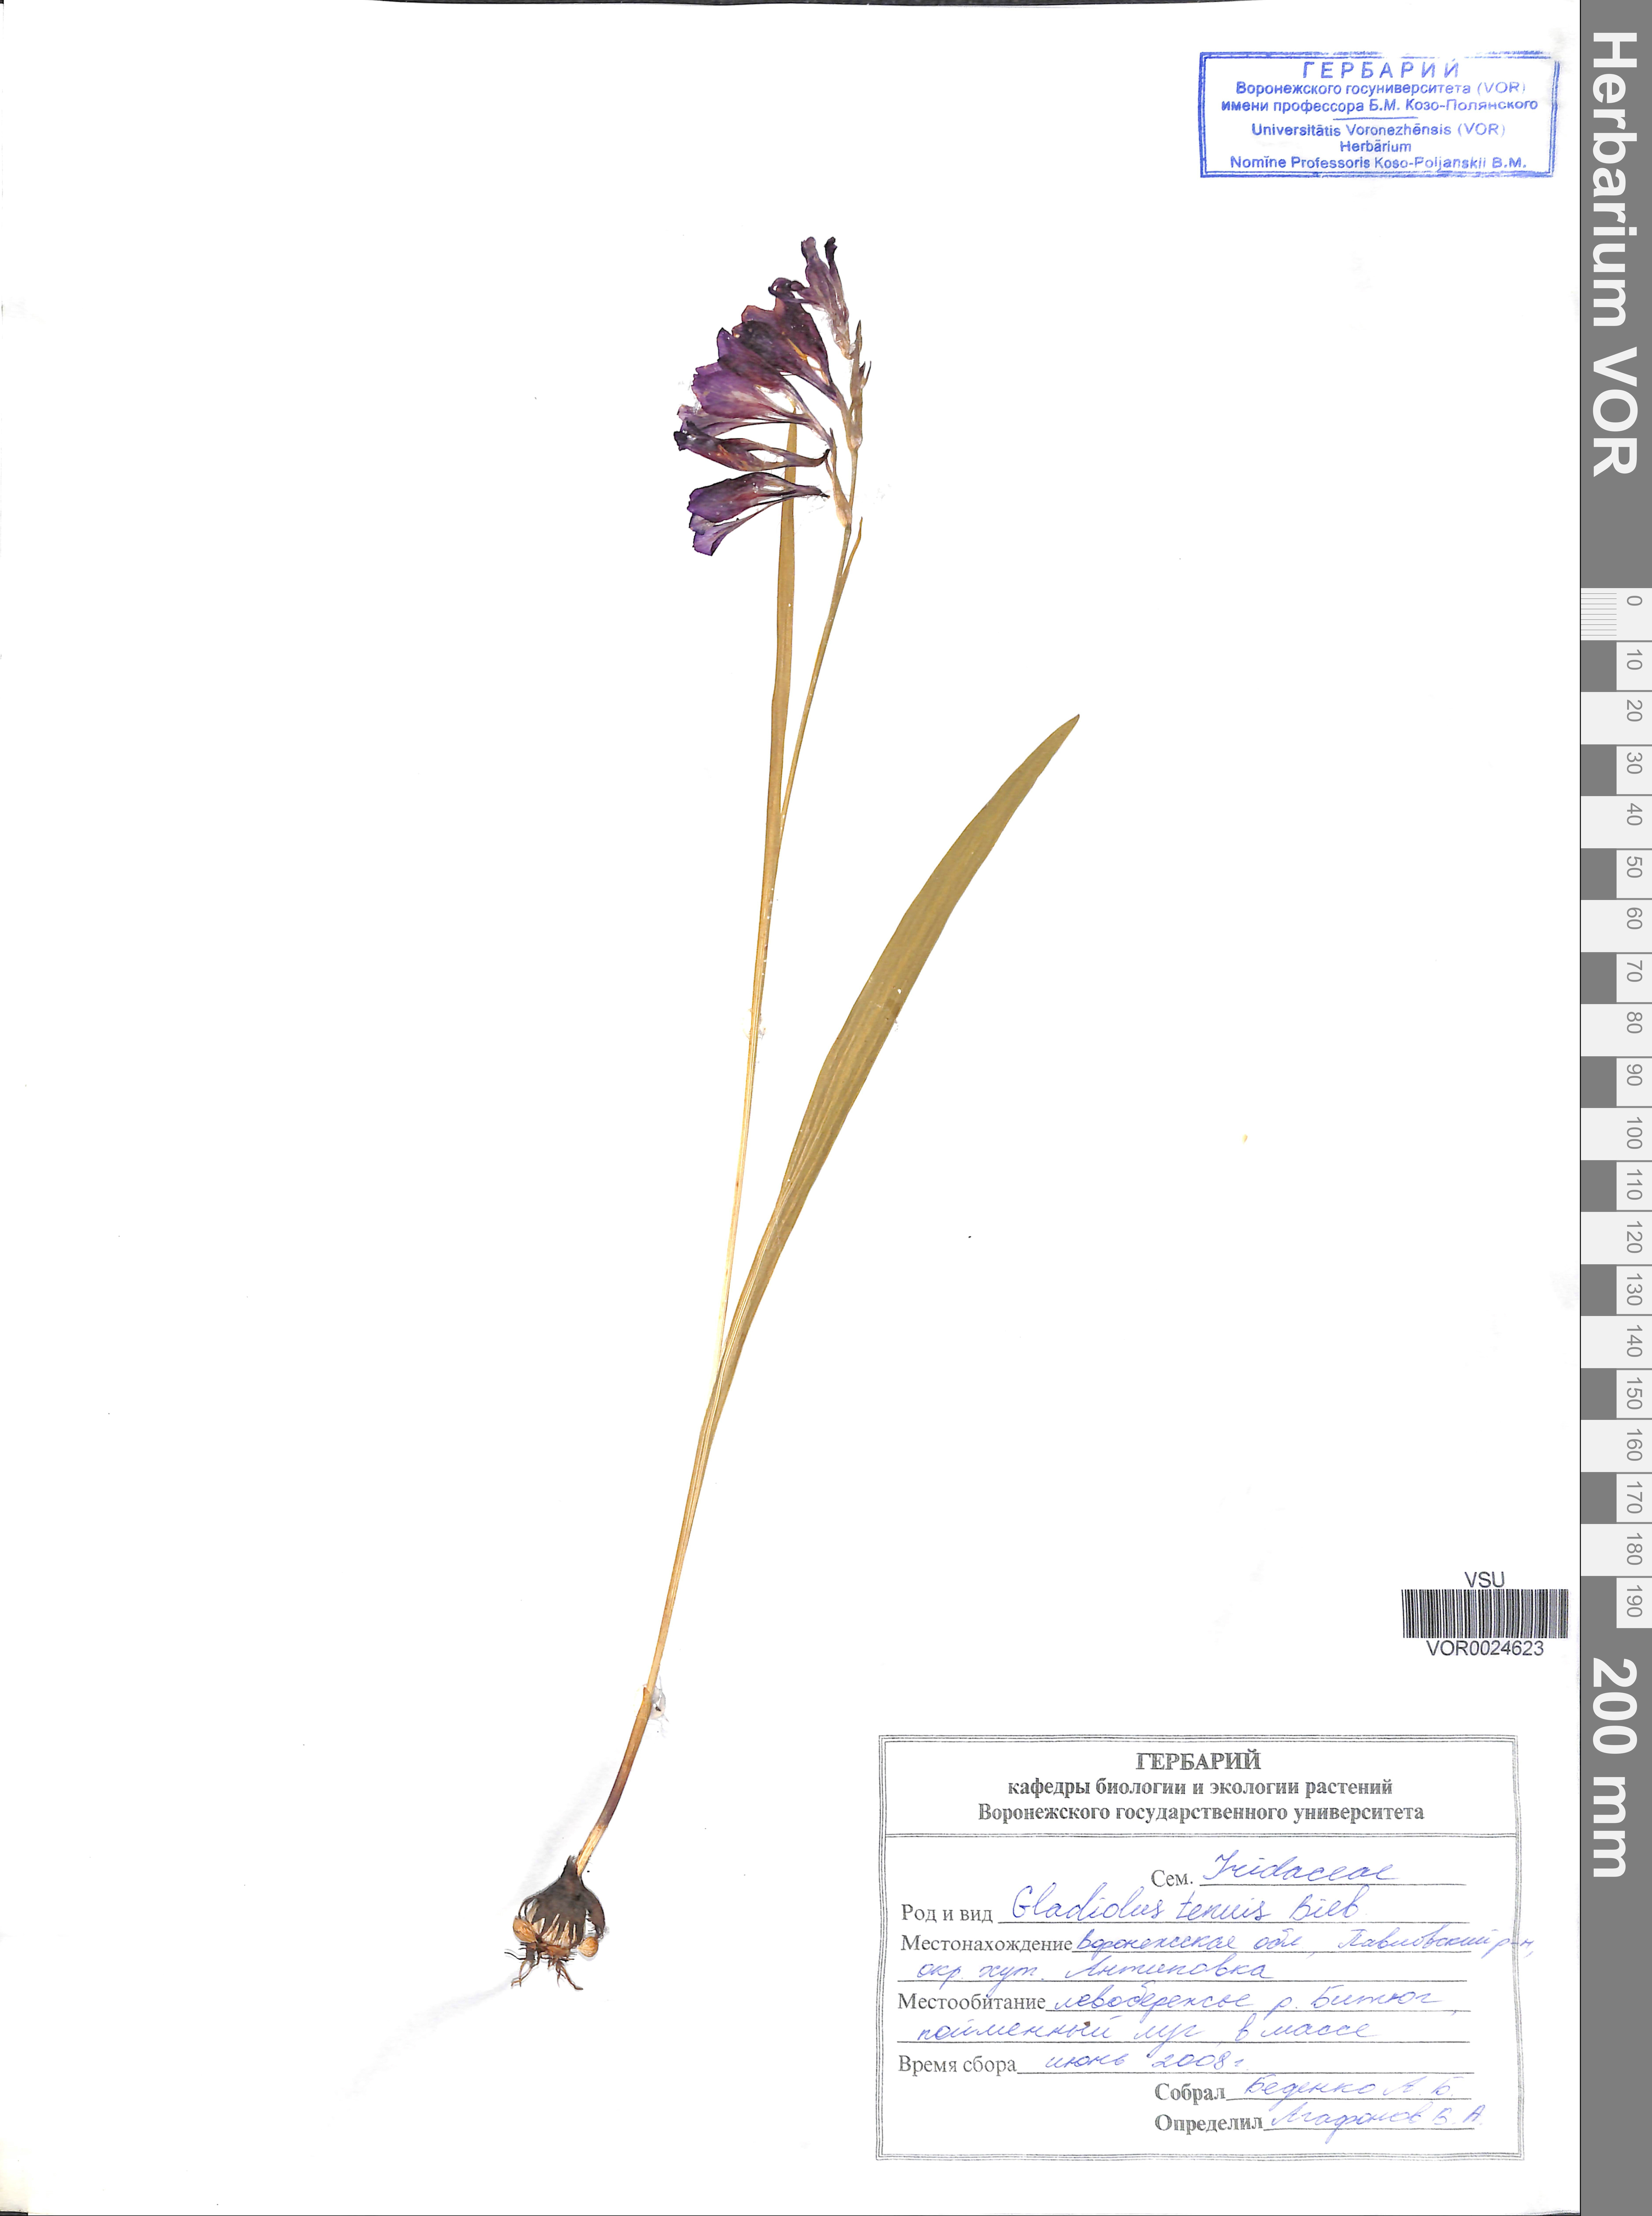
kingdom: Plantae
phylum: Tracheophyta
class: Liliopsida
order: Asparagales
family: Iridaceae
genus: Gladiolus
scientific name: Gladiolus tenuis
